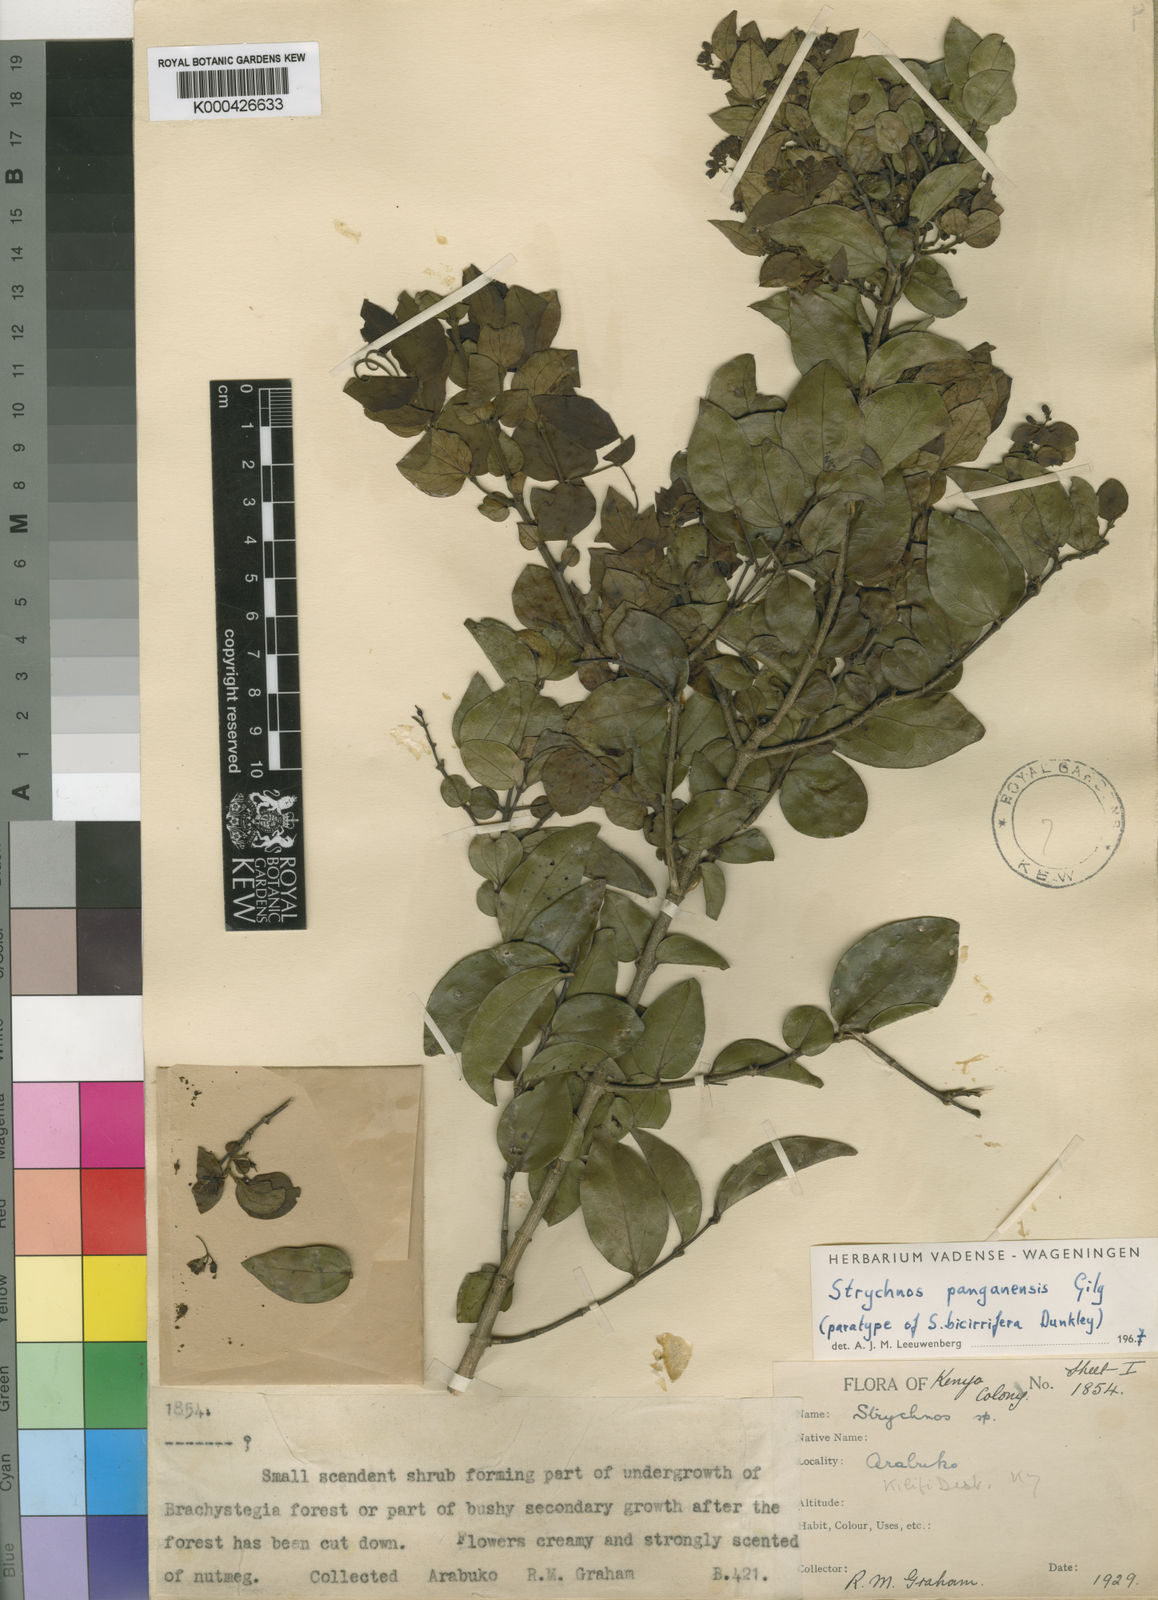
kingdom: Plantae
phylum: Tracheophyta
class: Magnoliopsida
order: Gentianales
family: Loganiaceae
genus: Strychnos
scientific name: Strychnos panganensis
